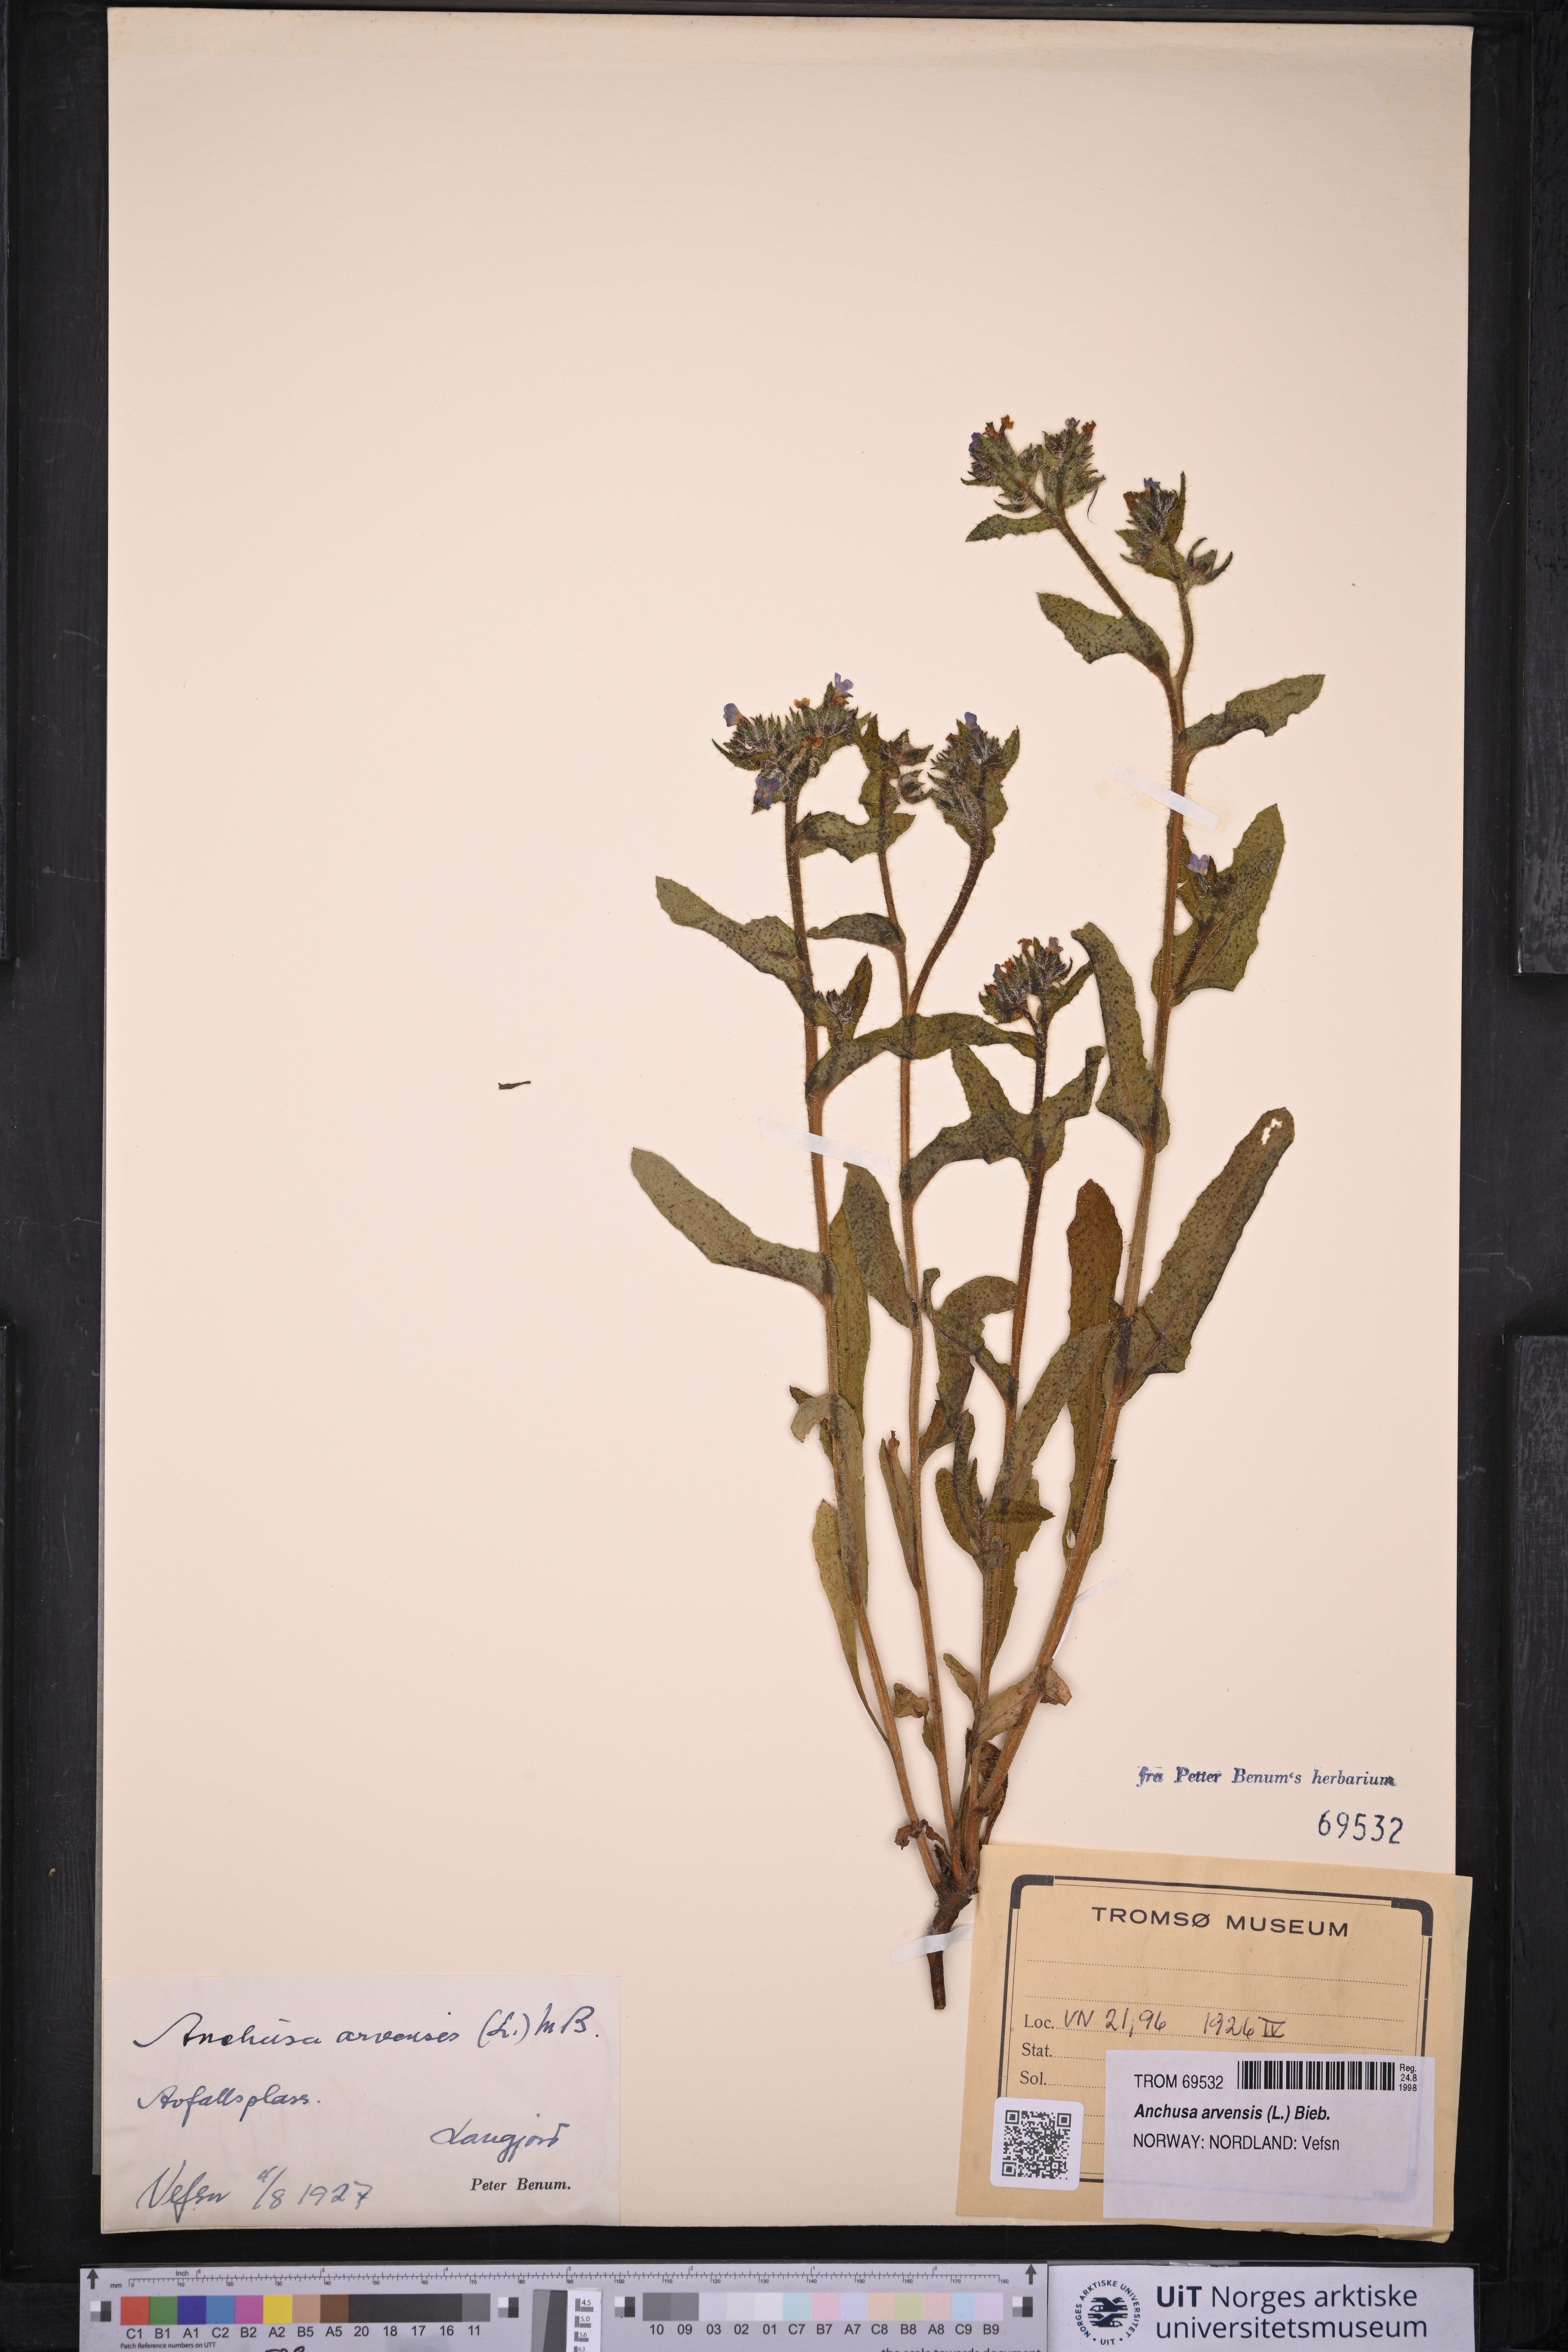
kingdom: Plantae
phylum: Tracheophyta
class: Magnoliopsida
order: Boraginales
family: Boraginaceae
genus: Lycopsis
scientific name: Lycopsis arvensis
